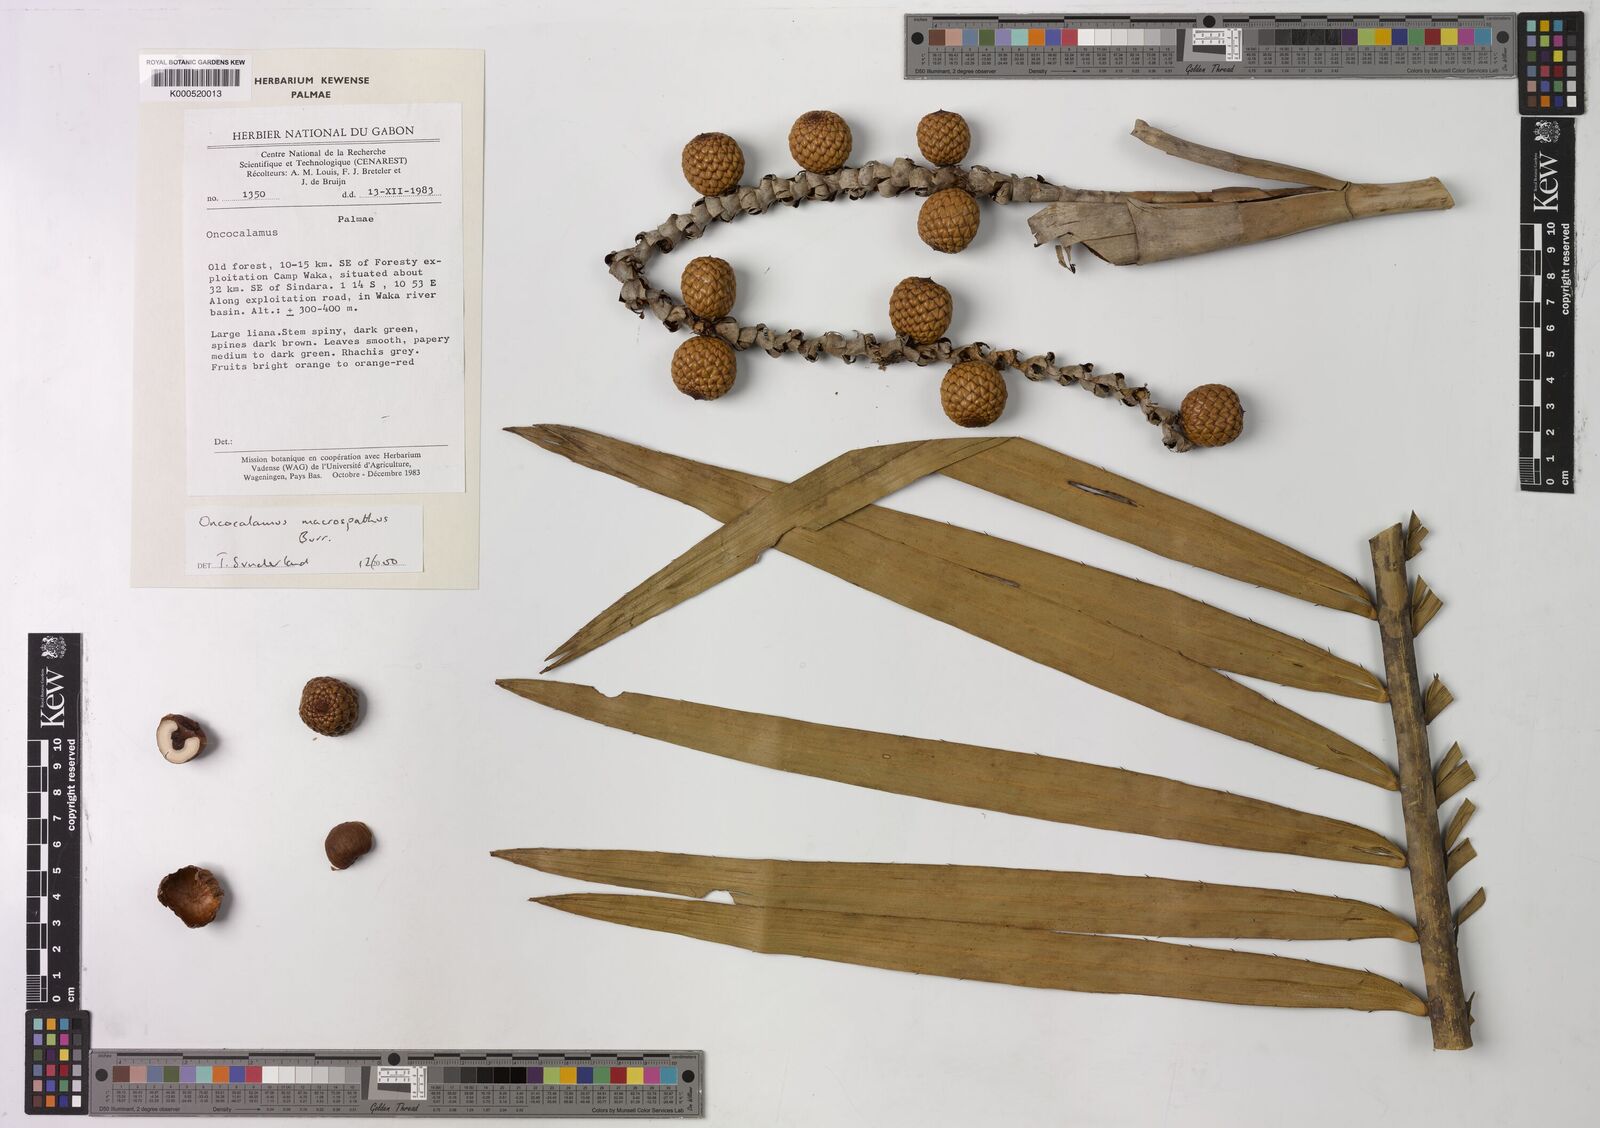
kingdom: Plantae
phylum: Tracheophyta
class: Liliopsida
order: Arecales
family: Arecaceae
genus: Oncocalamus
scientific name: Oncocalamus macrospathus
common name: Rattan
